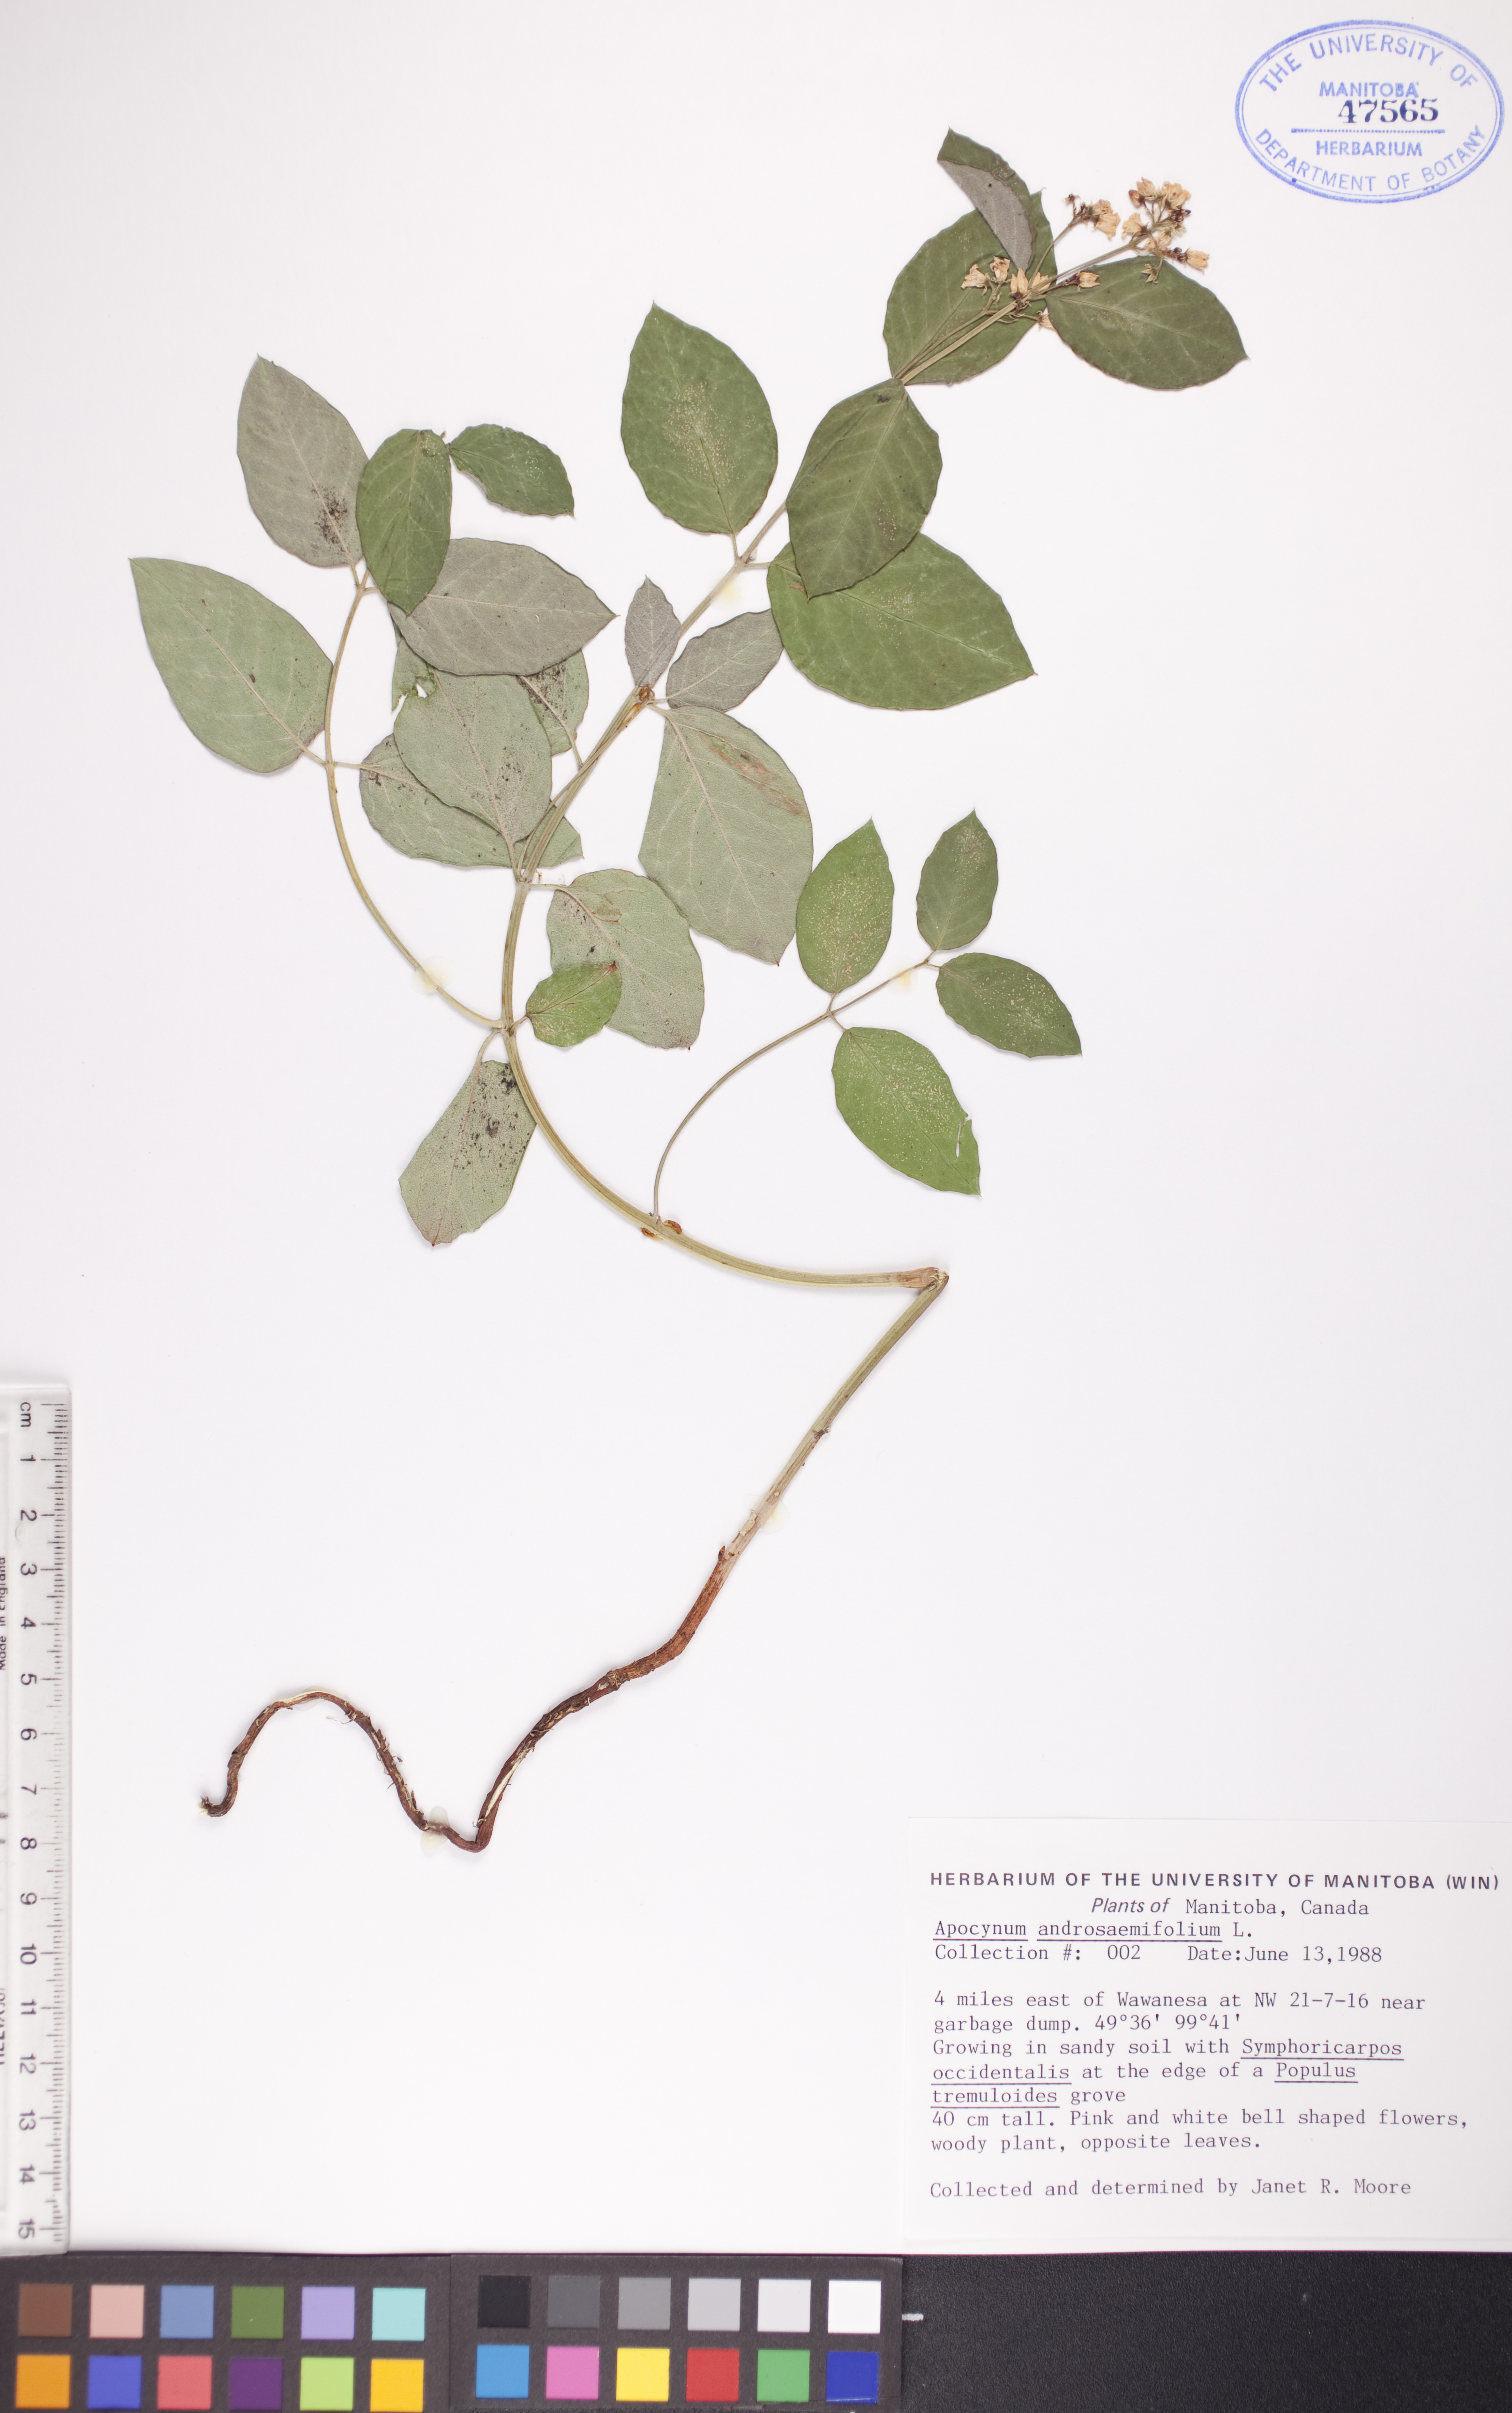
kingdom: Plantae
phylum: Tracheophyta
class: Magnoliopsida
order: Gentianales
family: Apocynaceae
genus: Apocynum
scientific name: Apocynum androsaemifolium
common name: Spreading dogbane
